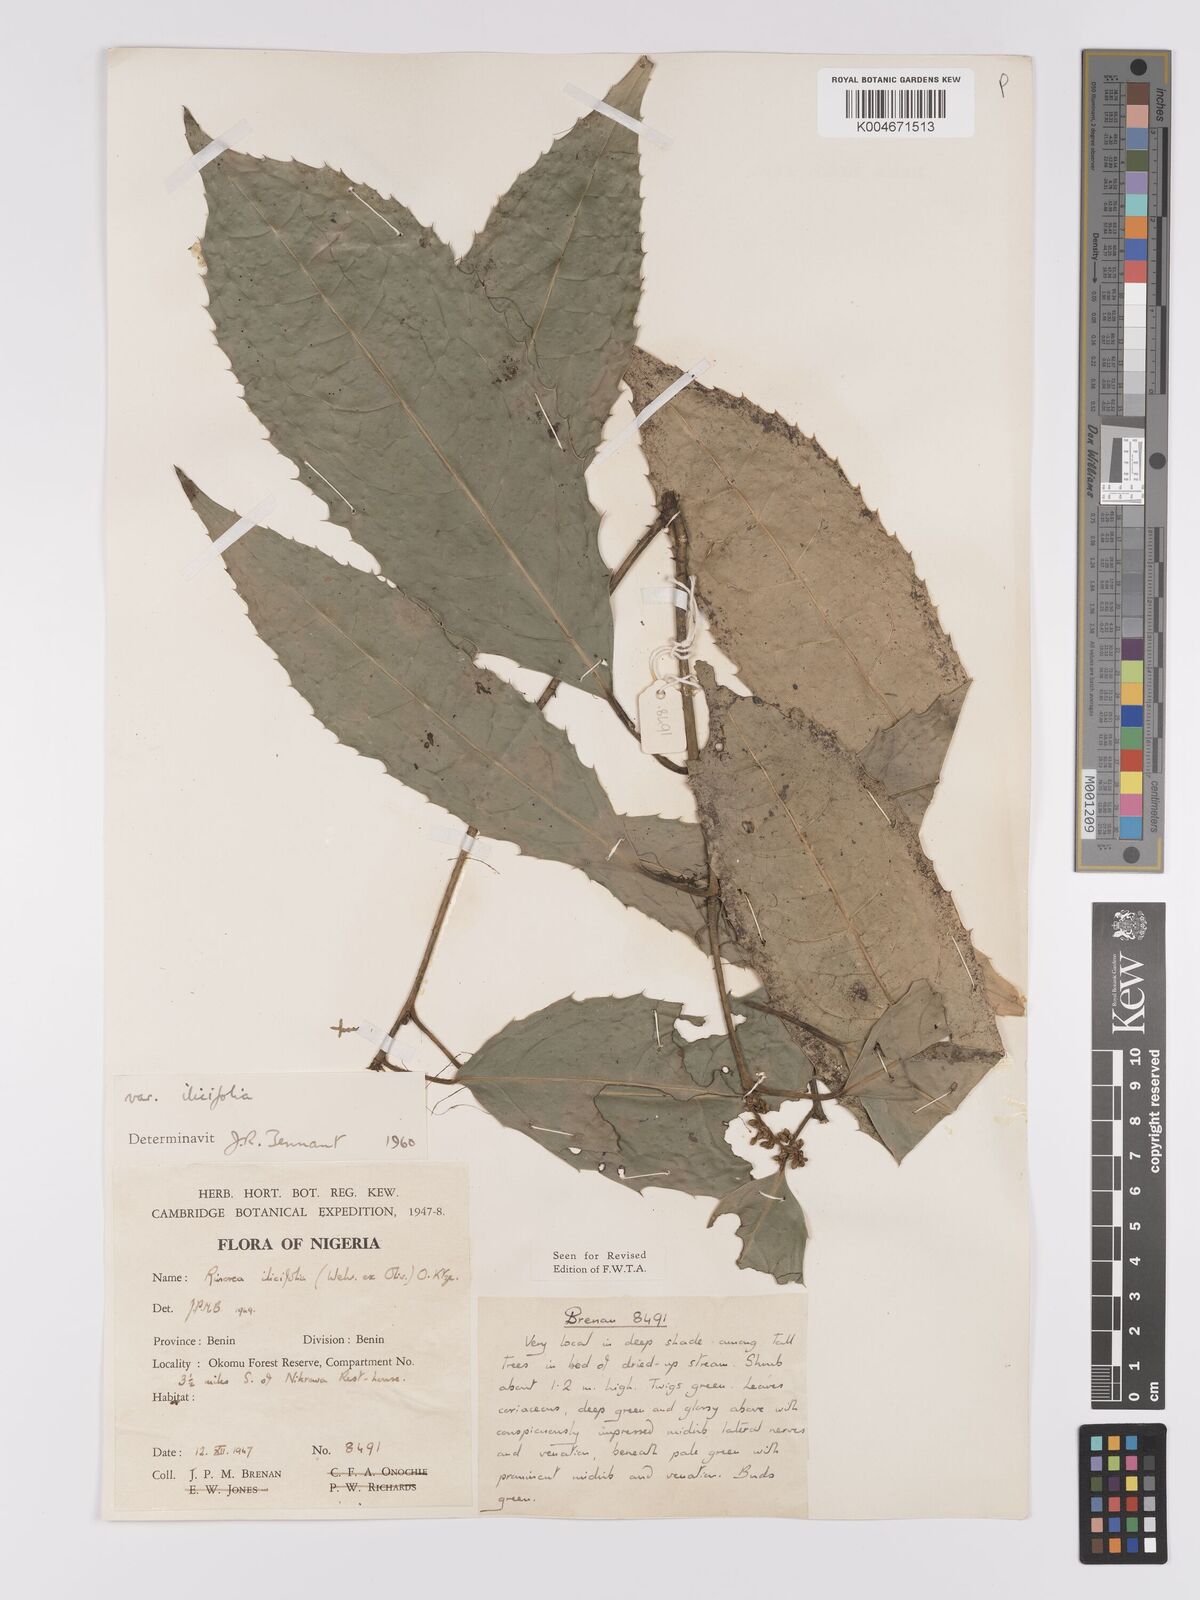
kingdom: Plantae
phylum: Tracheophyta
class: Magnoliopsida
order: Malpighiales
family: Violaceae
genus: Rinorea
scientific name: Rinorea ilicifolia
